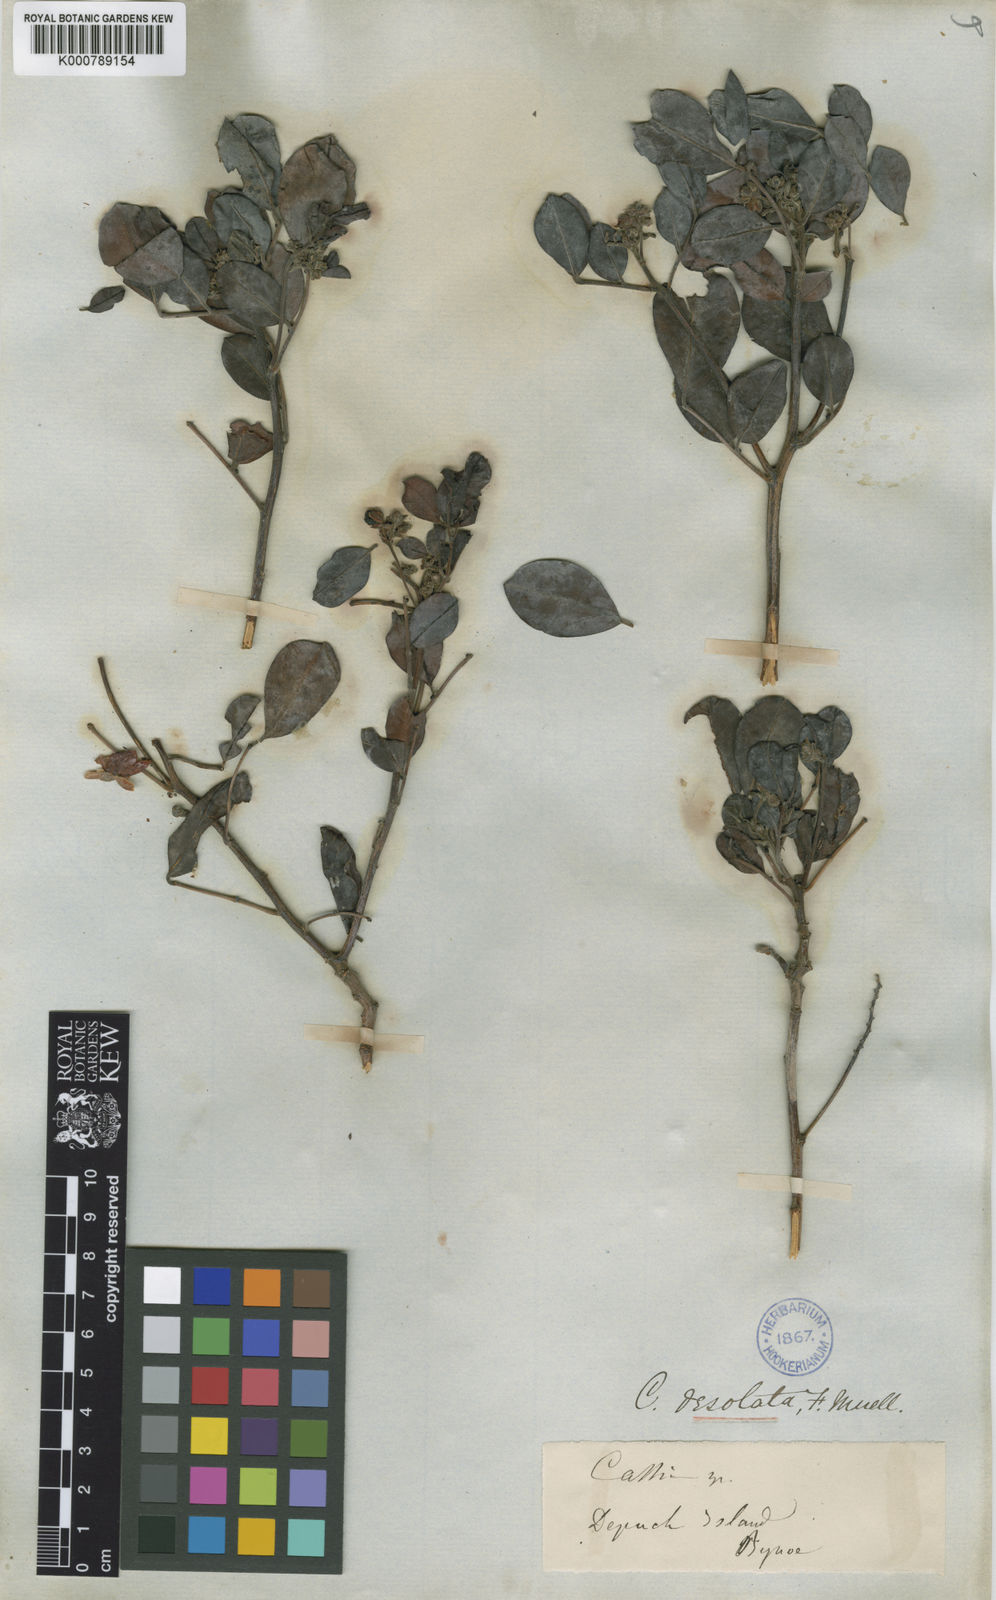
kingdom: Plantae
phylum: Tracheophyta
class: Magnoliopsida
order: Fabales
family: Fabaceae
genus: Senna
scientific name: Senna
